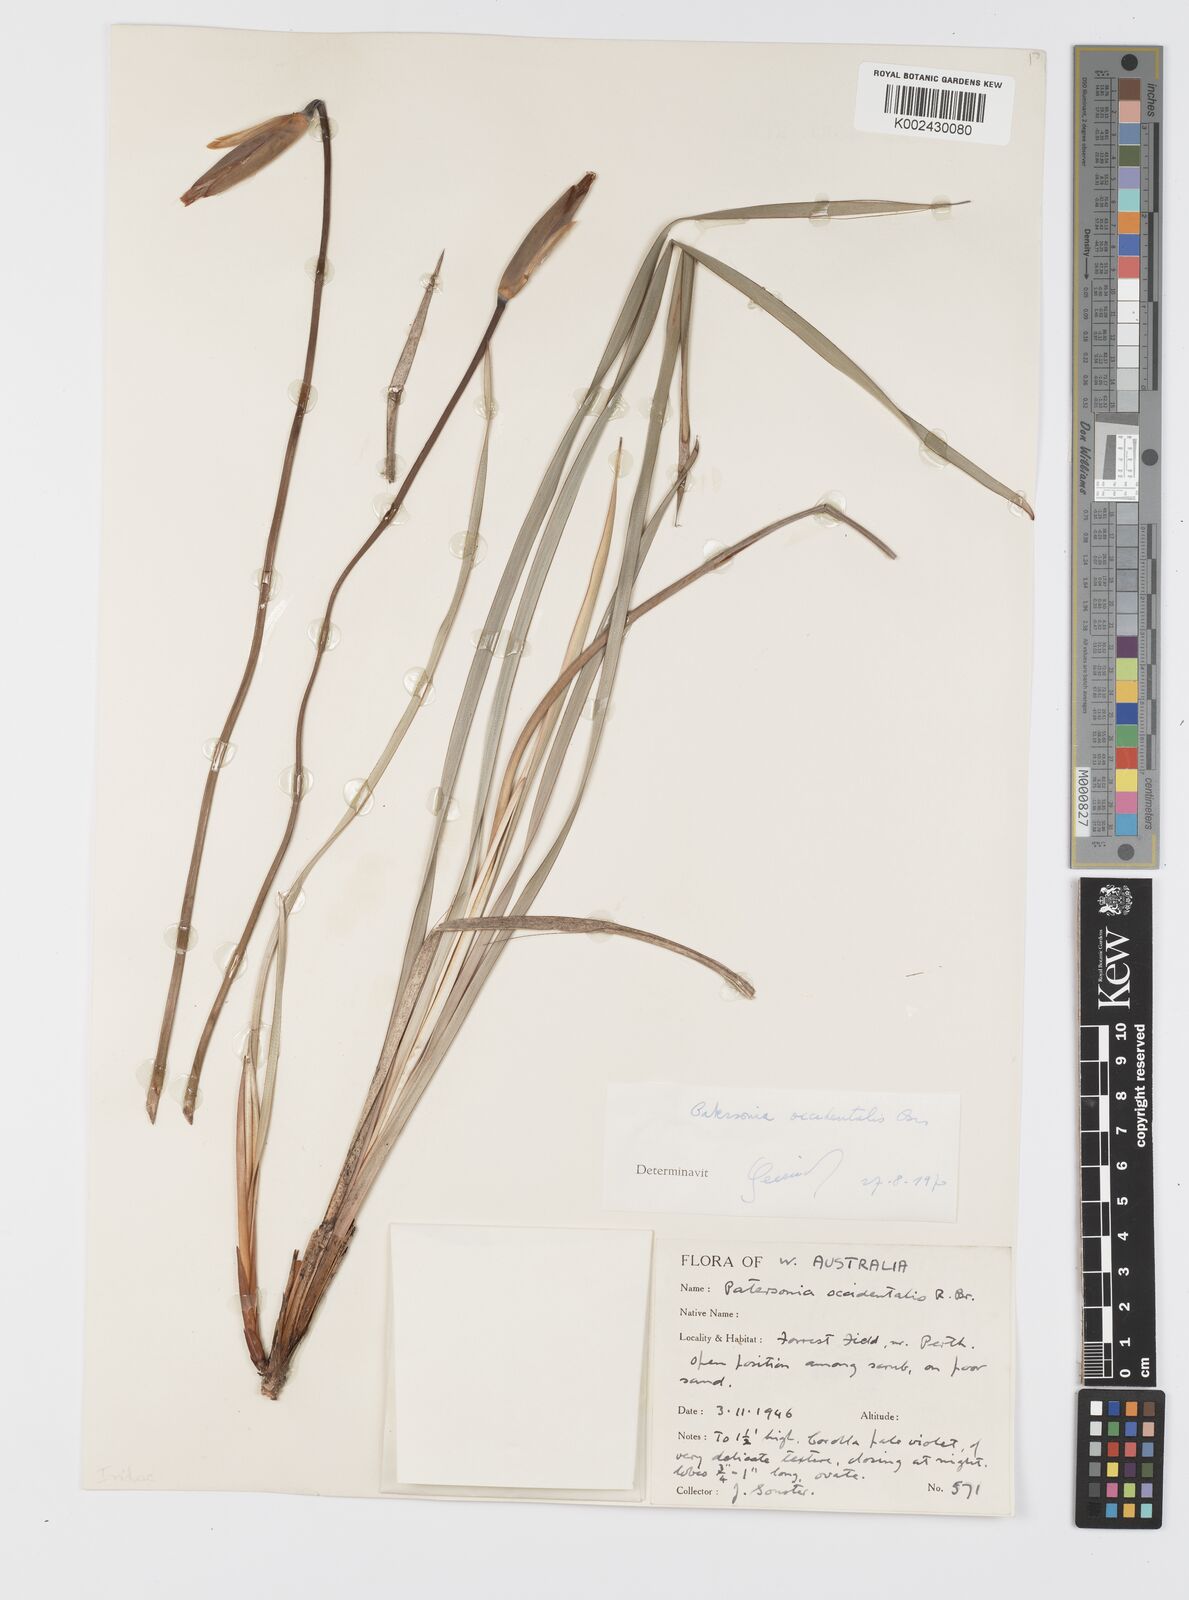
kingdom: Plantae
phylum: Tracheophyta
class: Liliopsida
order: Asparagales
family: Iridaceae
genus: Patersonia
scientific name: Patersonia occidentalis
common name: Long purple-flag
